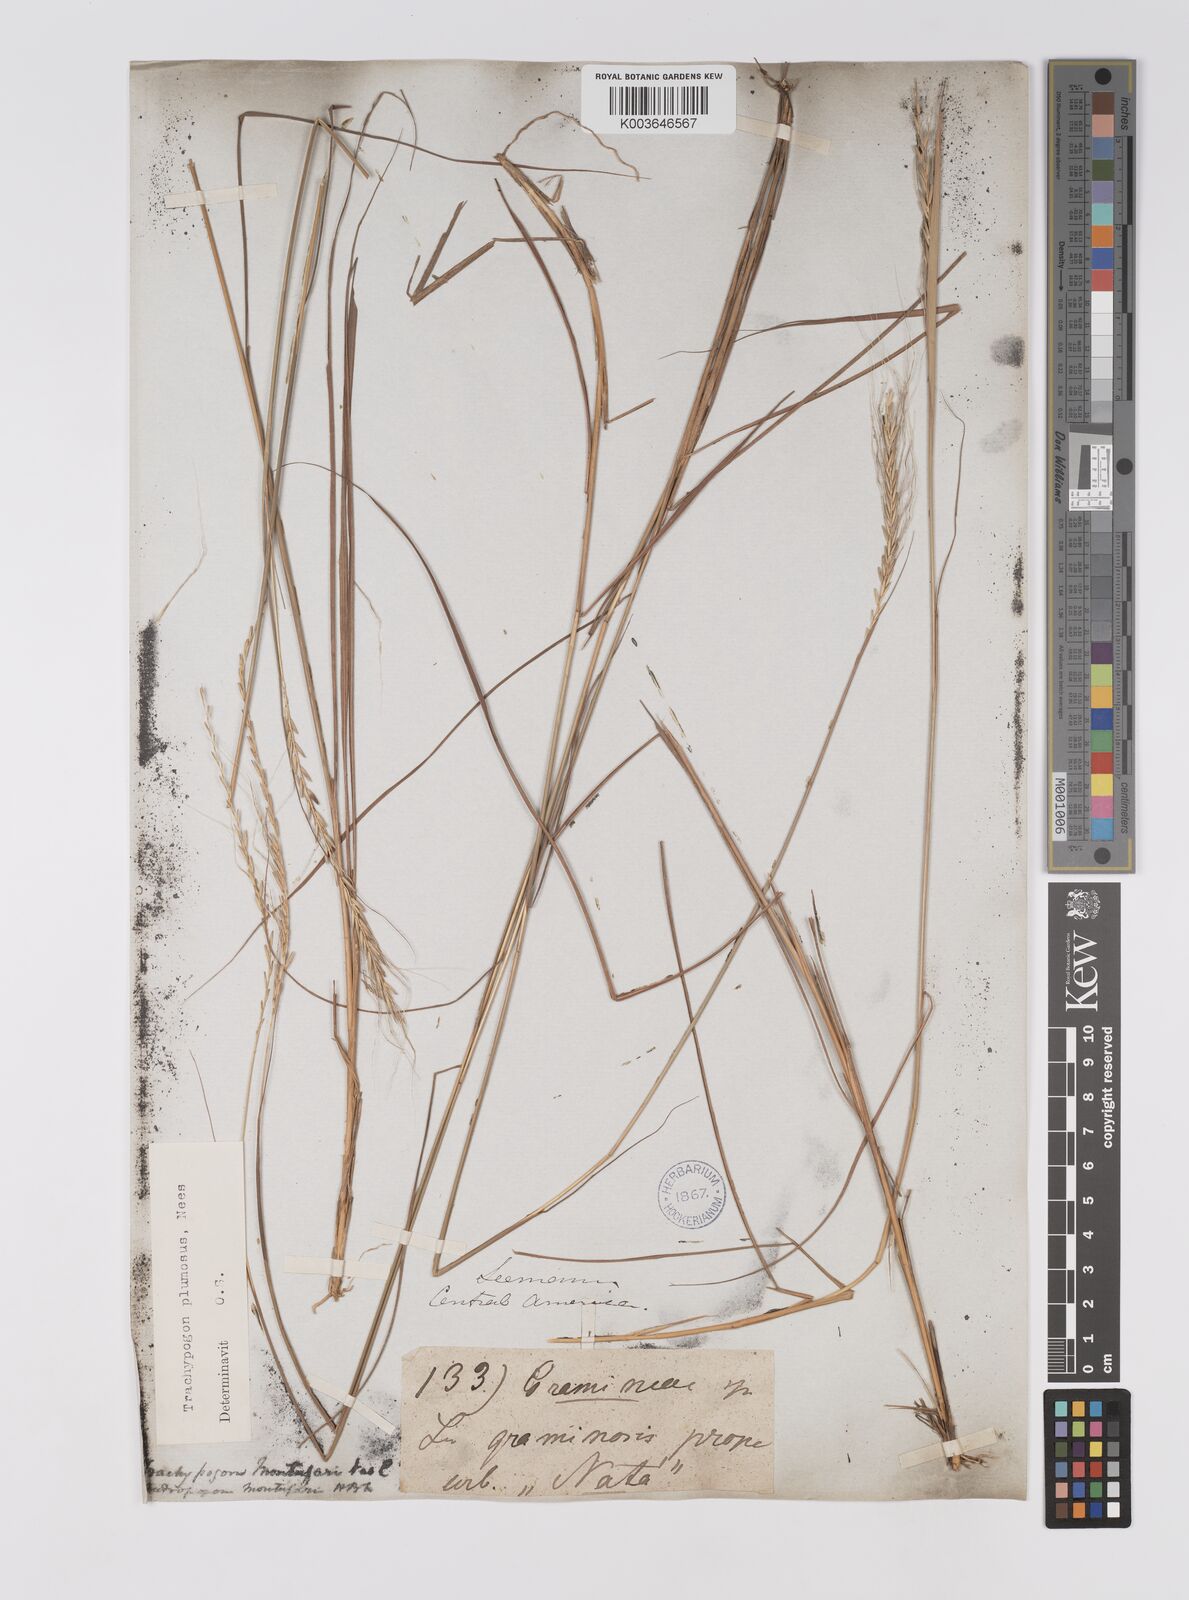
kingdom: Plantae
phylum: Tracheophyta
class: Liliopsida
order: Poales
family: Poaceae
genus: Trachypogon
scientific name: Trachypogon spicatus
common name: Crinkle-awn
